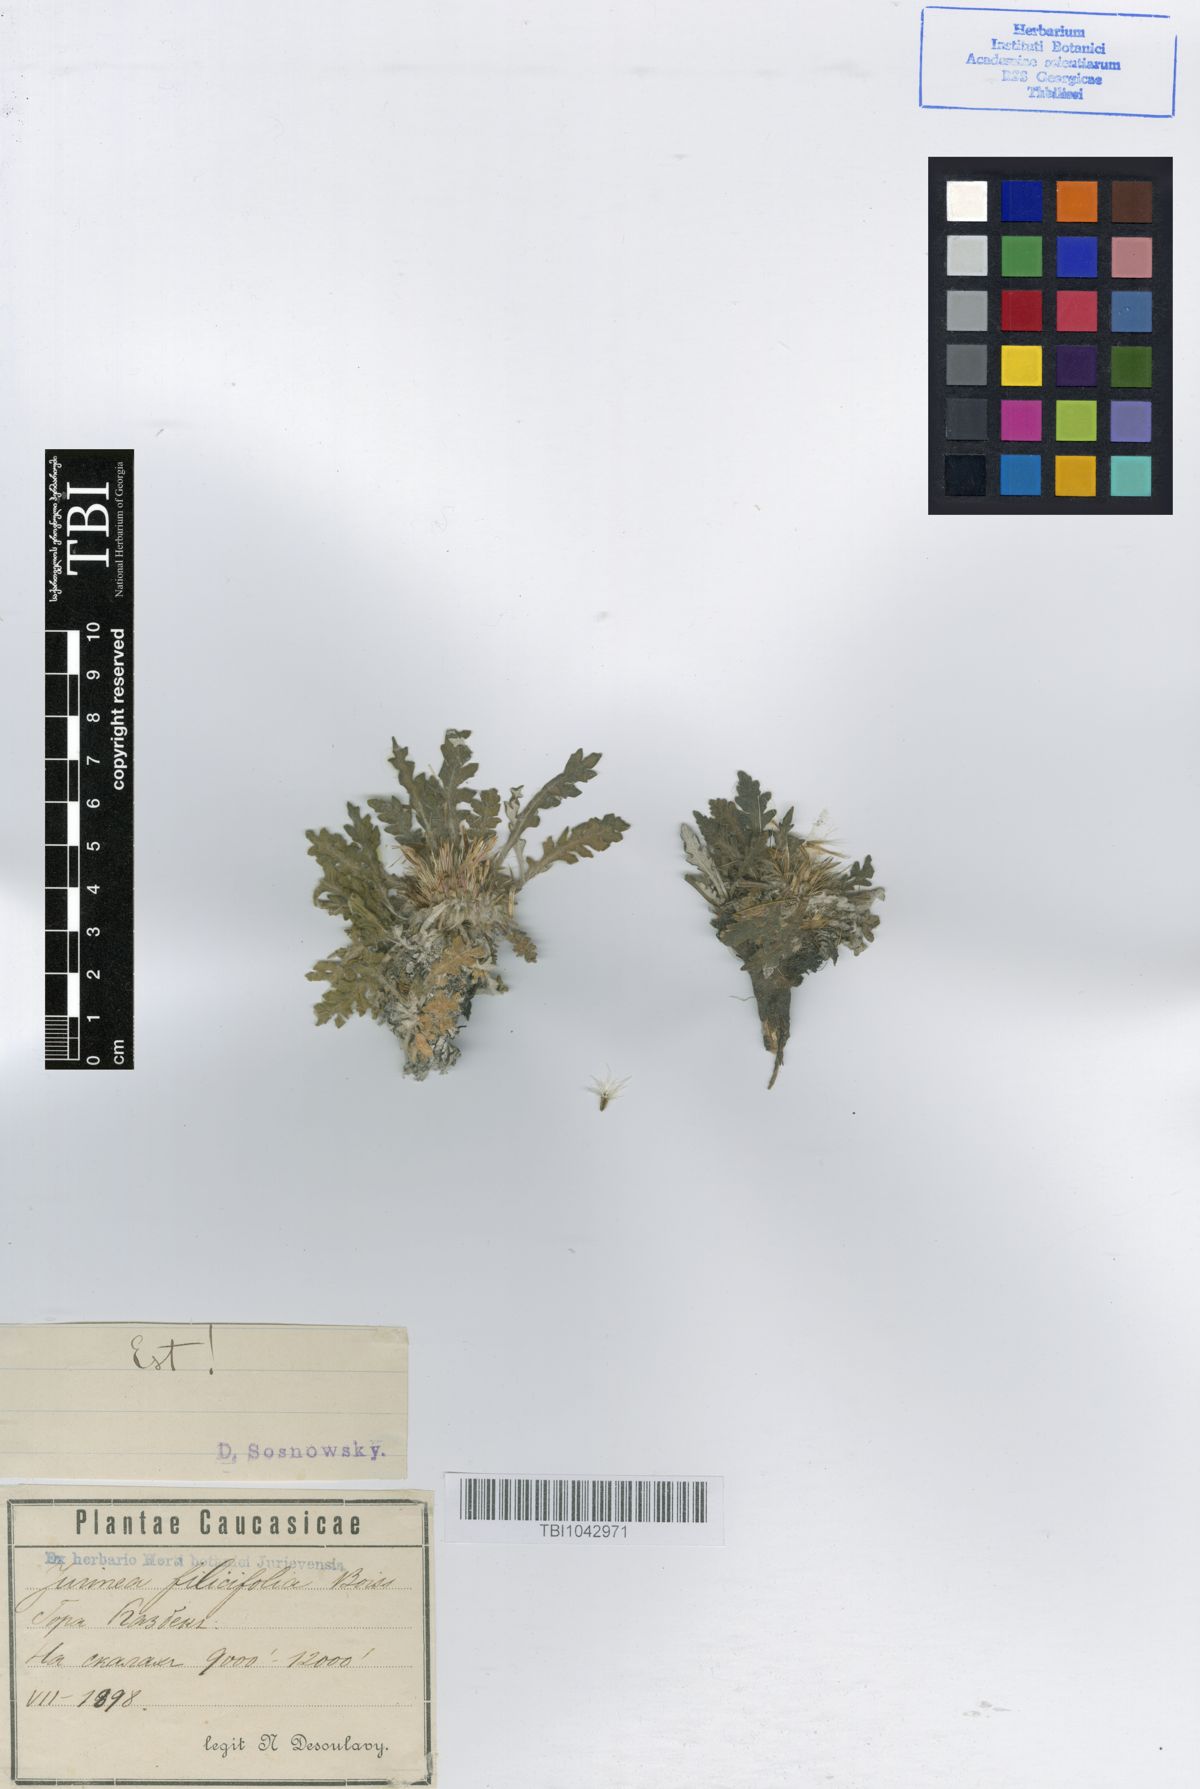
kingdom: Plantae
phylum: Tracheophyta
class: Magnoliopsida
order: Asterales
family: Asteraceae
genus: Jurinea
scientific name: Jurinea filicifolia
